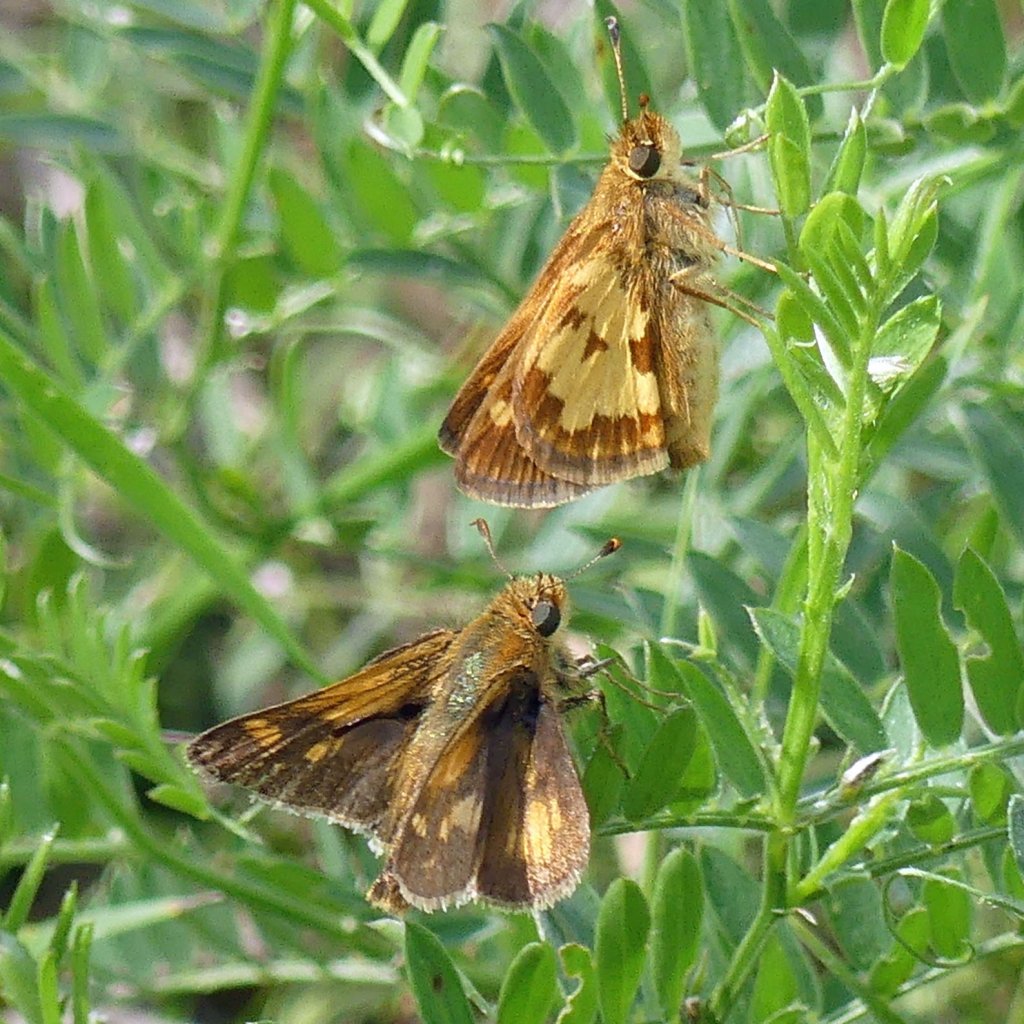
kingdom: Animalia
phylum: Arthropoda
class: Insecta
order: Lepidoptera
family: Hesperiidae
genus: Polites
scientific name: Polites coras
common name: Peck's Skipper
